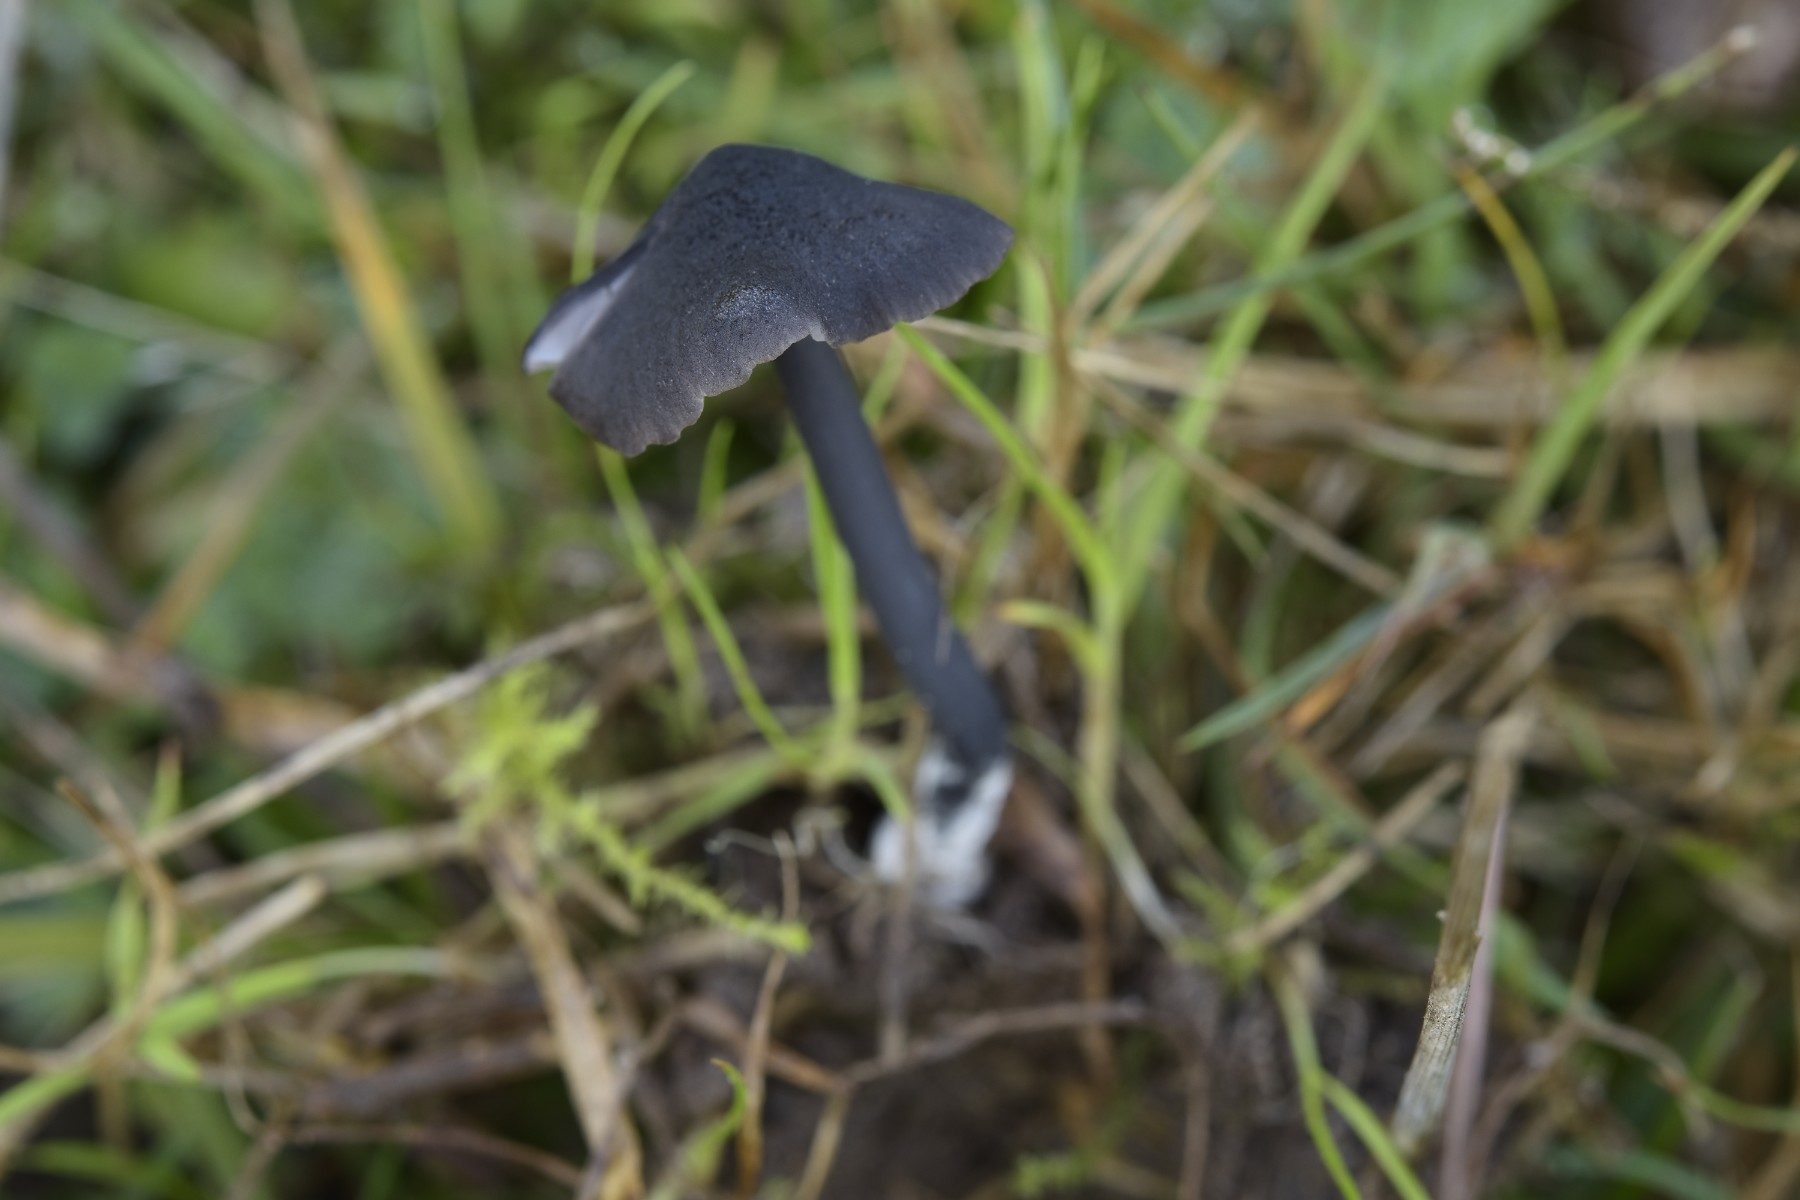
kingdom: Fungi
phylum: Basidiomycota
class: Agaricomycetes
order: Agaricales
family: Entolomataceae
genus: Entoloma
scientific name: Entoloma chalybeum
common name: blåbladet rødblad
